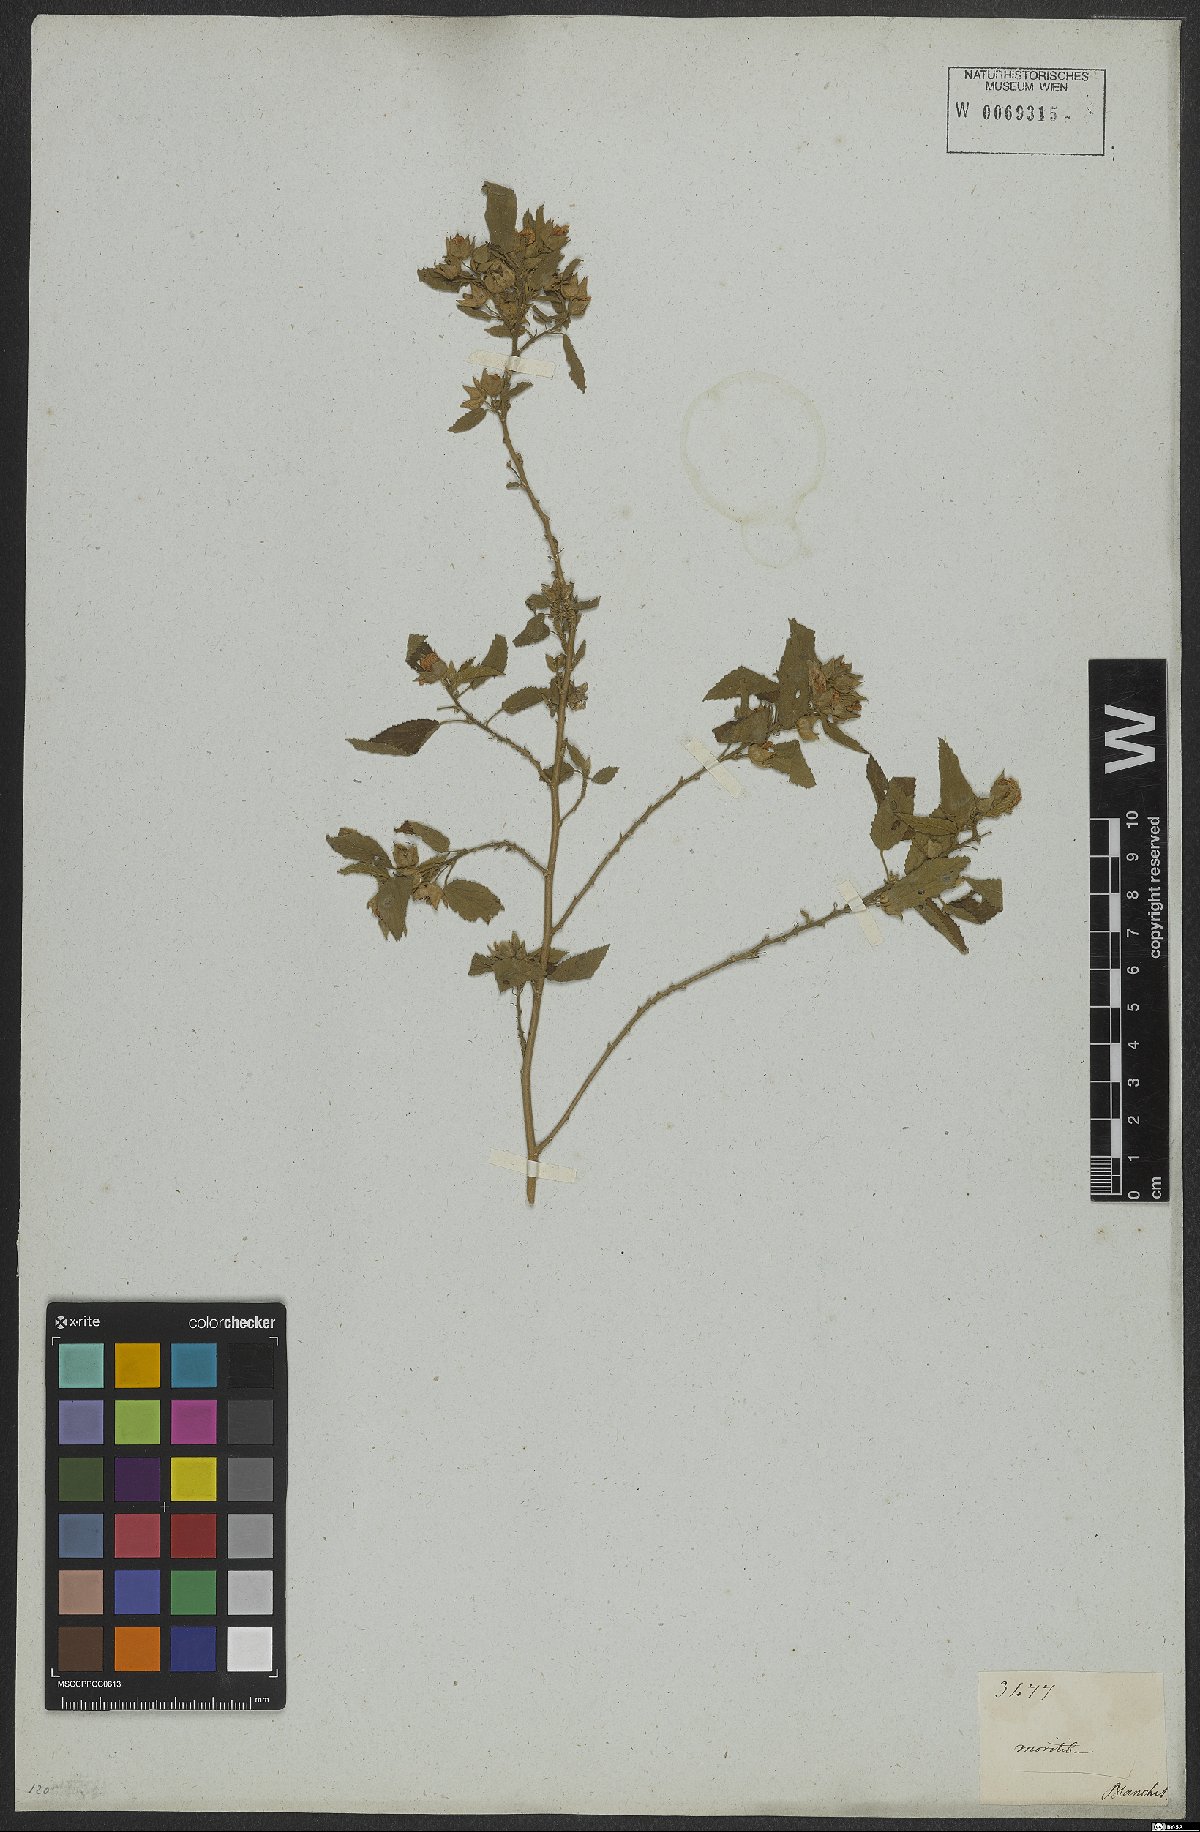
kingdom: Plantae
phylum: Tracheophyta
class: Magnoliopsida
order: Malvales
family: Malvaceae
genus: Bakeridesia
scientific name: Bakeridesia esculenta
